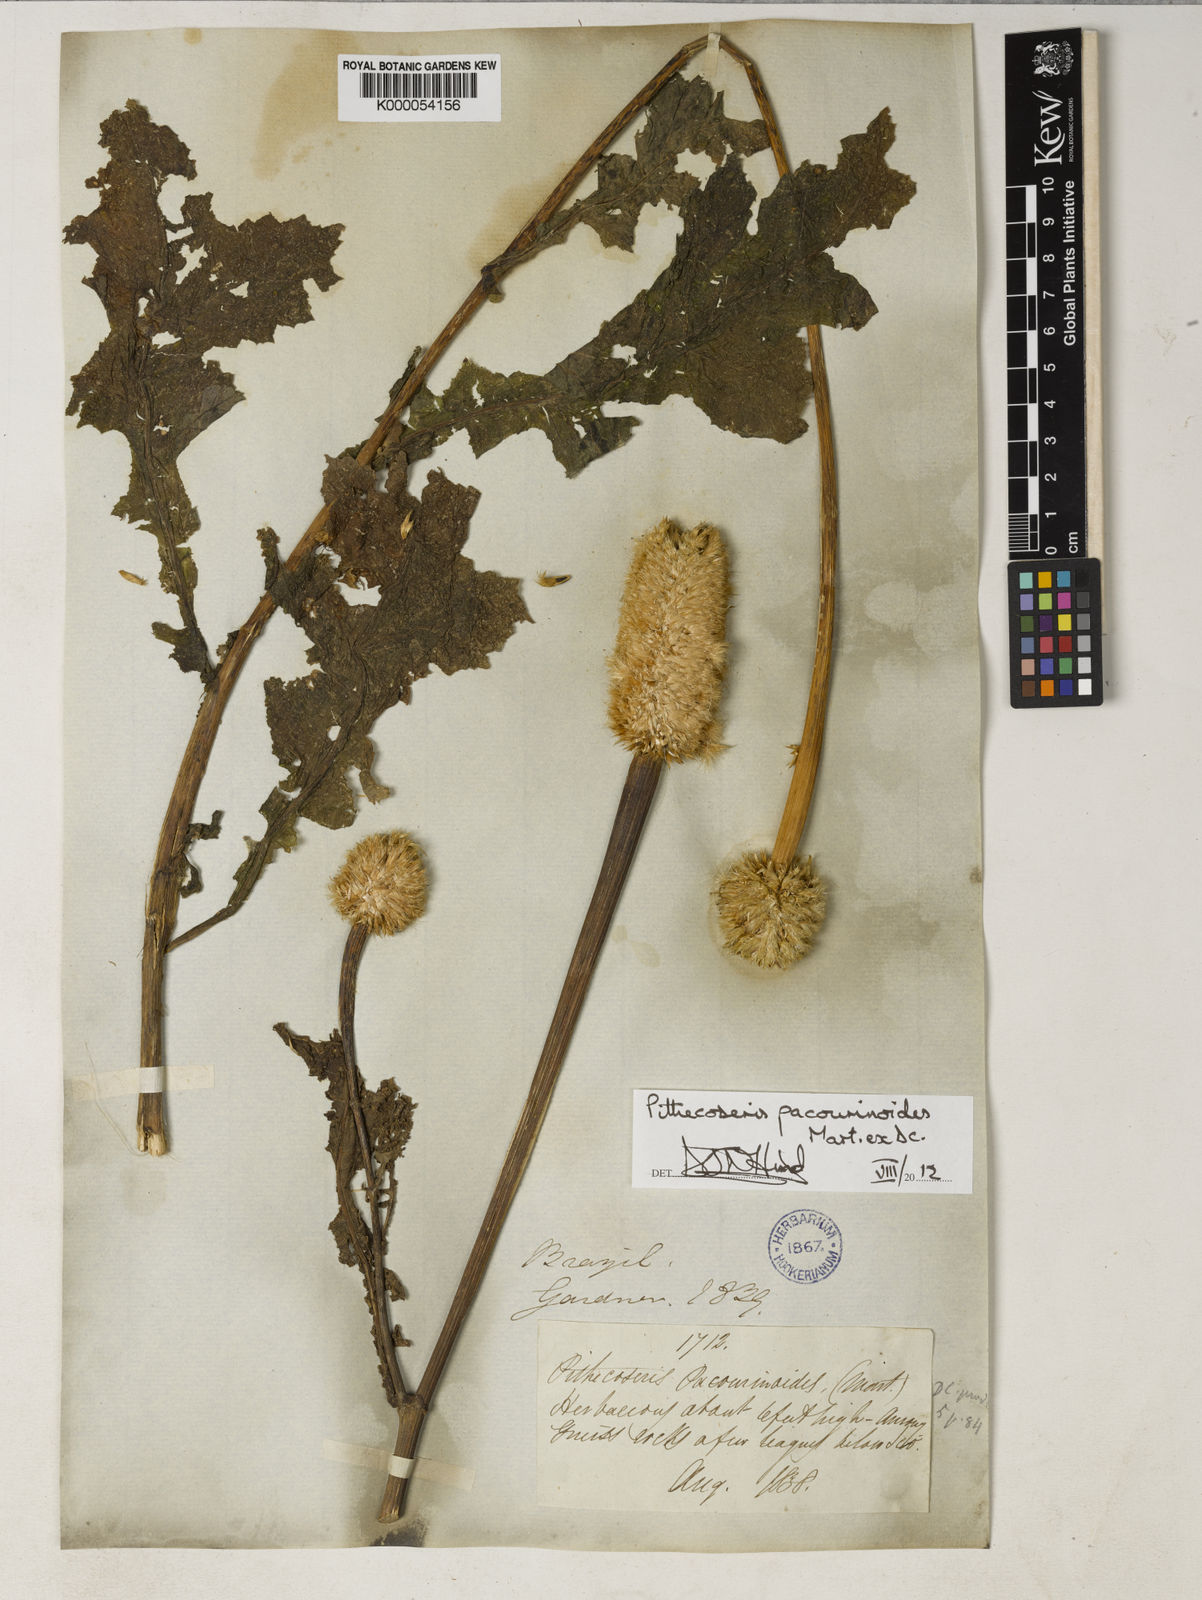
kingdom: Plantae
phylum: Tracheophyta
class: Magnoliopsida
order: Asterales
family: Asteraceae
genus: Chresta
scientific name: Chresta pacourinoides
